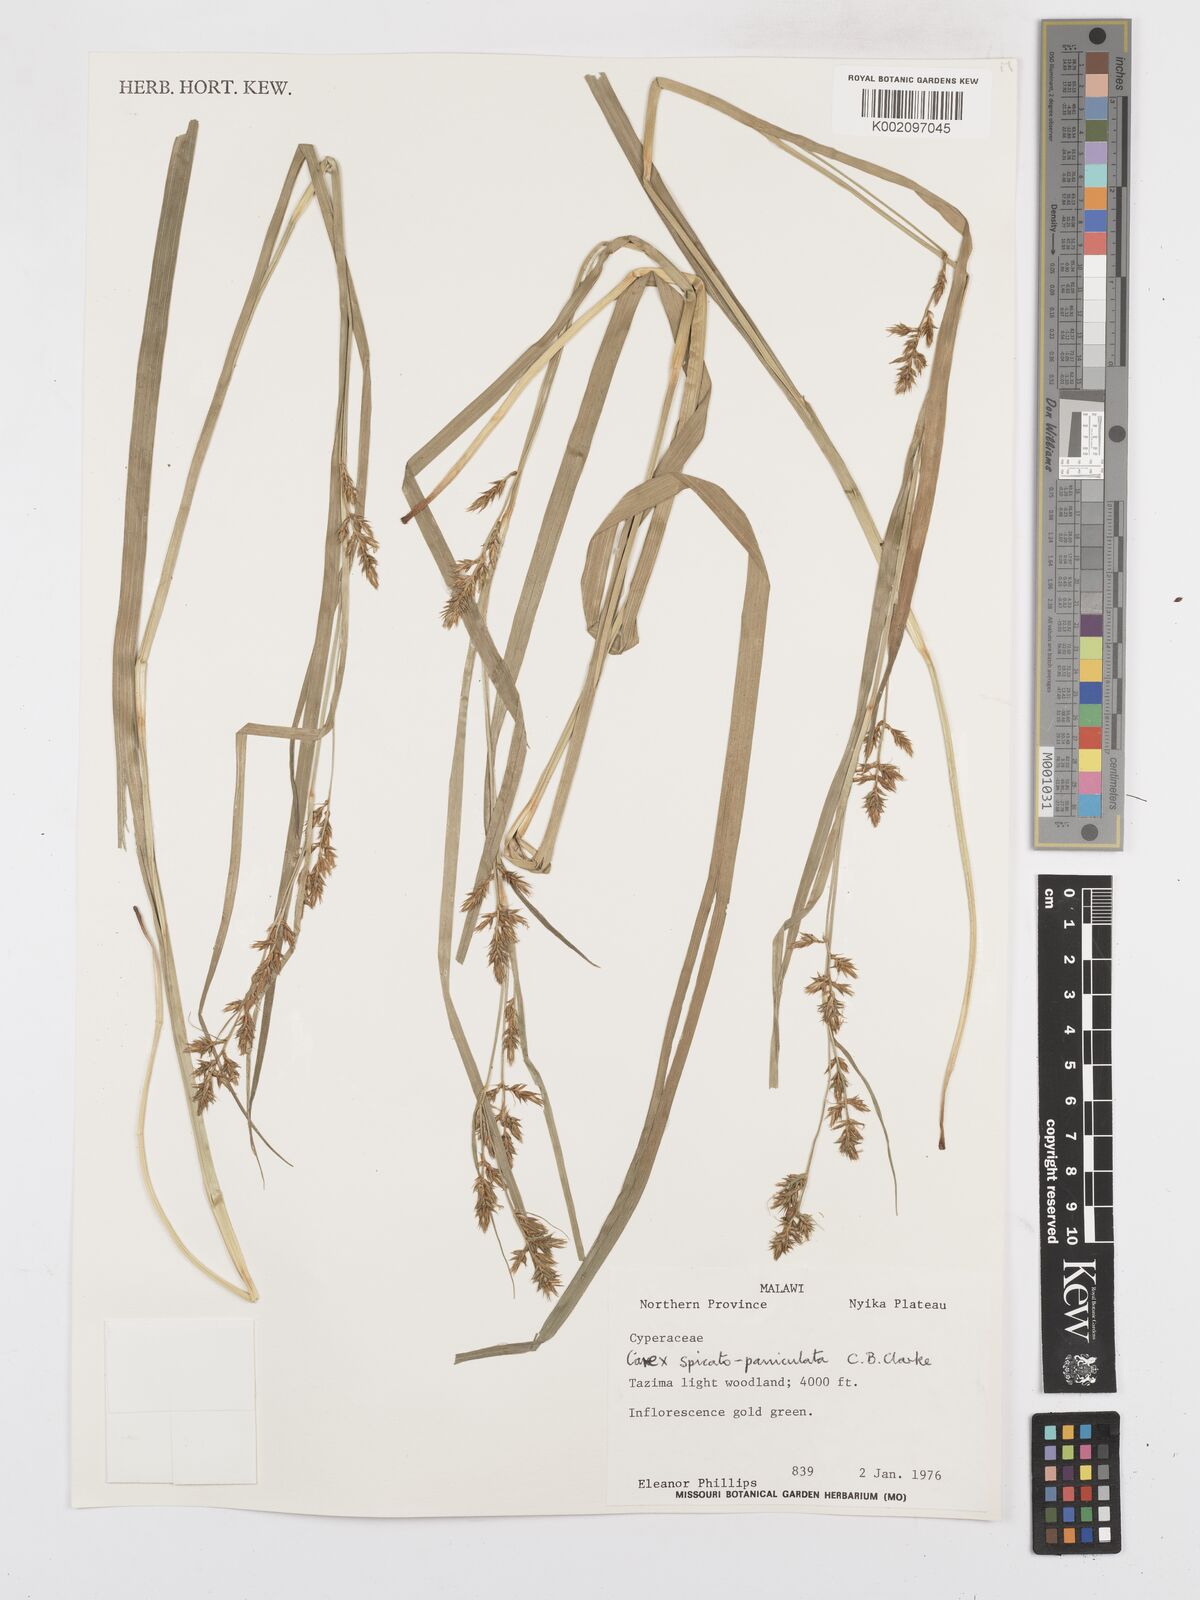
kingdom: Plantae
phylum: Tracheophyta
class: Liliopsida
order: Poales
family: Cyperaceae
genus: Carex
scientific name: Carex spicatopaniculata
